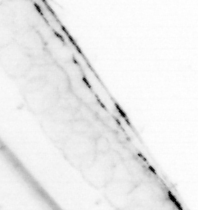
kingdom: Animalia
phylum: Chaetognatha
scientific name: Chaetognatha
